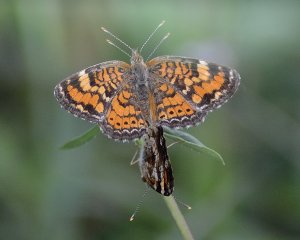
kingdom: Animalia
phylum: Arthropoda
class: Insecta
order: Lepidoptera
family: Nymphalidae
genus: Phyciodes
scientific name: Phyciodes phaon
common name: Phaon Crescent
